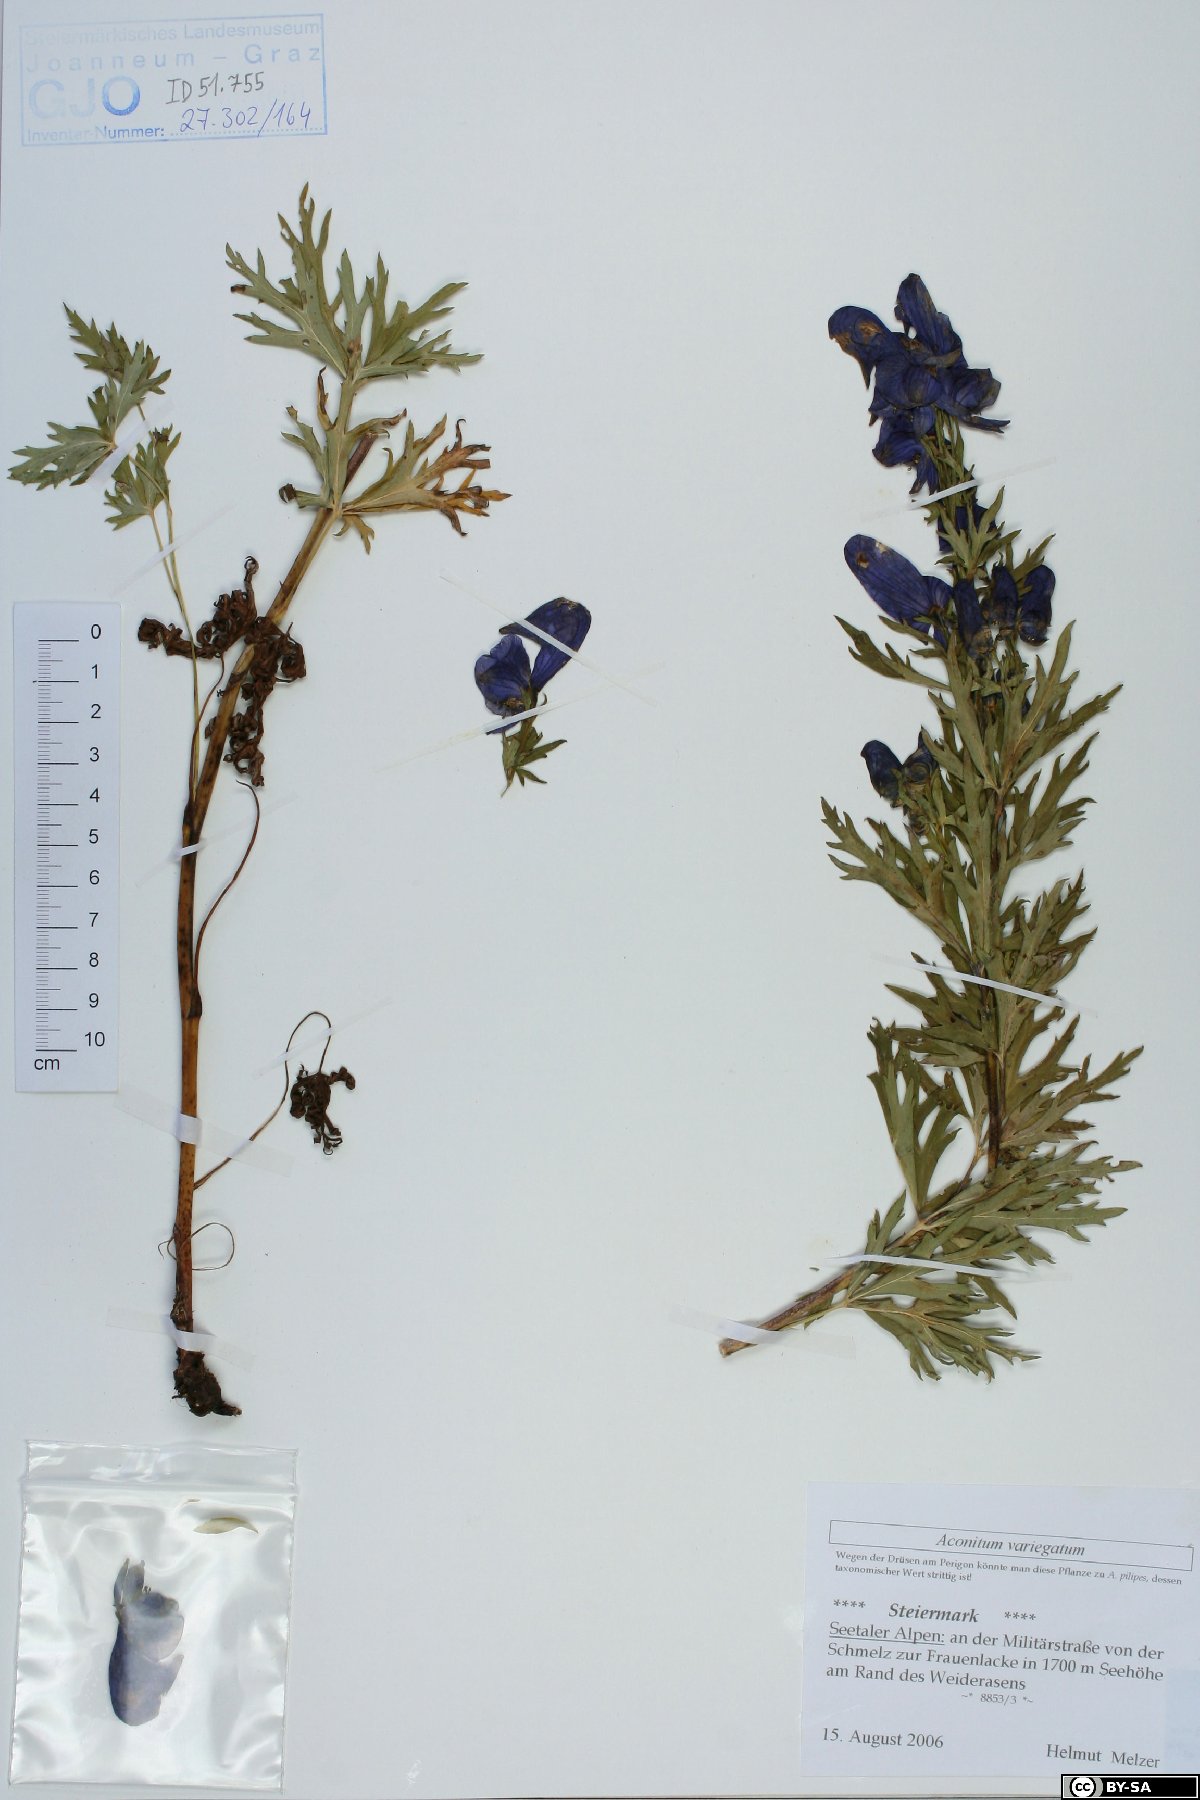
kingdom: Plantae
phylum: Tracheophyta
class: Magnoliopsida
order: Ranunculales
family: Ranunculaceae
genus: Aconitum
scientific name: Aconitum variegatum
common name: Manchurian monkshood
